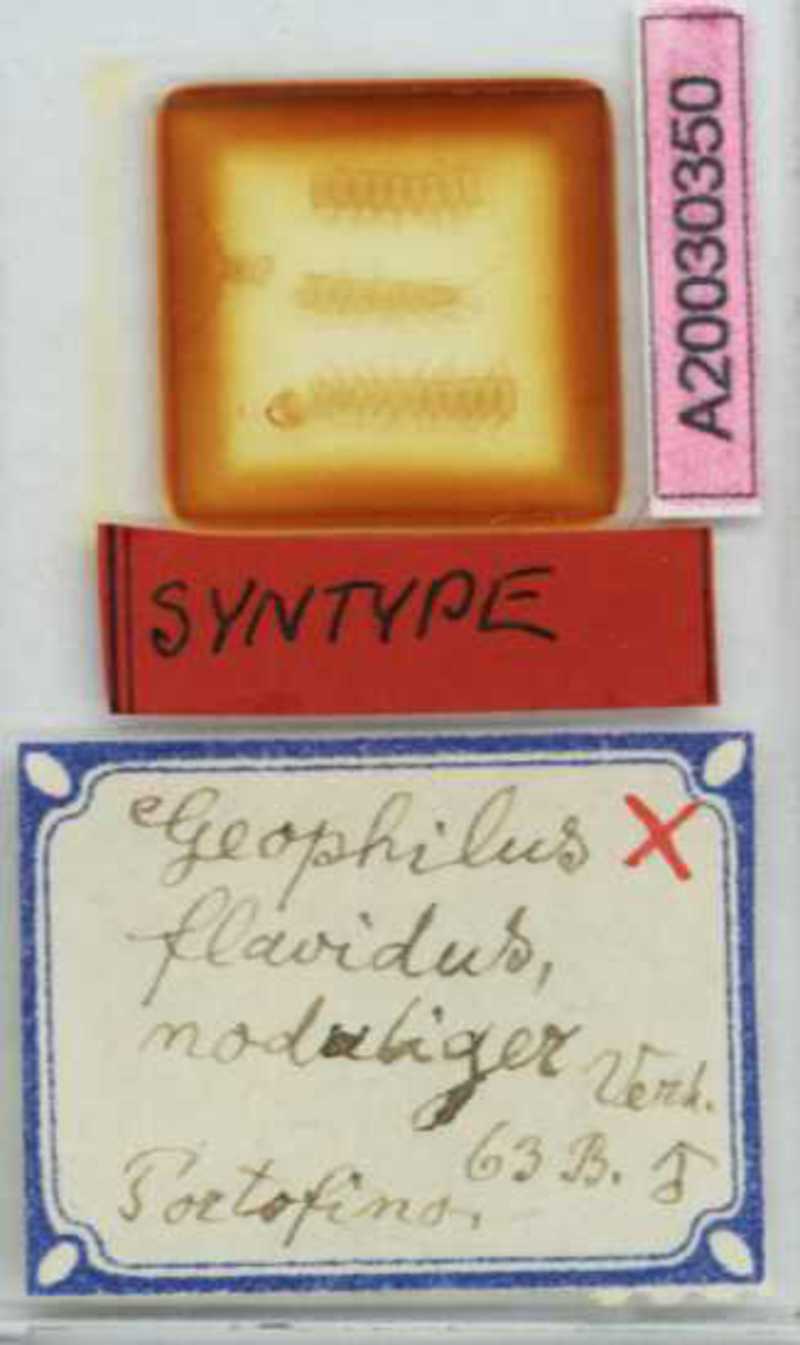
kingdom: Animalia
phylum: Arthropoda
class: Chilopoda
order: Geophilomorpha
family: Geophilidae
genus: Clinopodes
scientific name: Clinopodes flavidus
